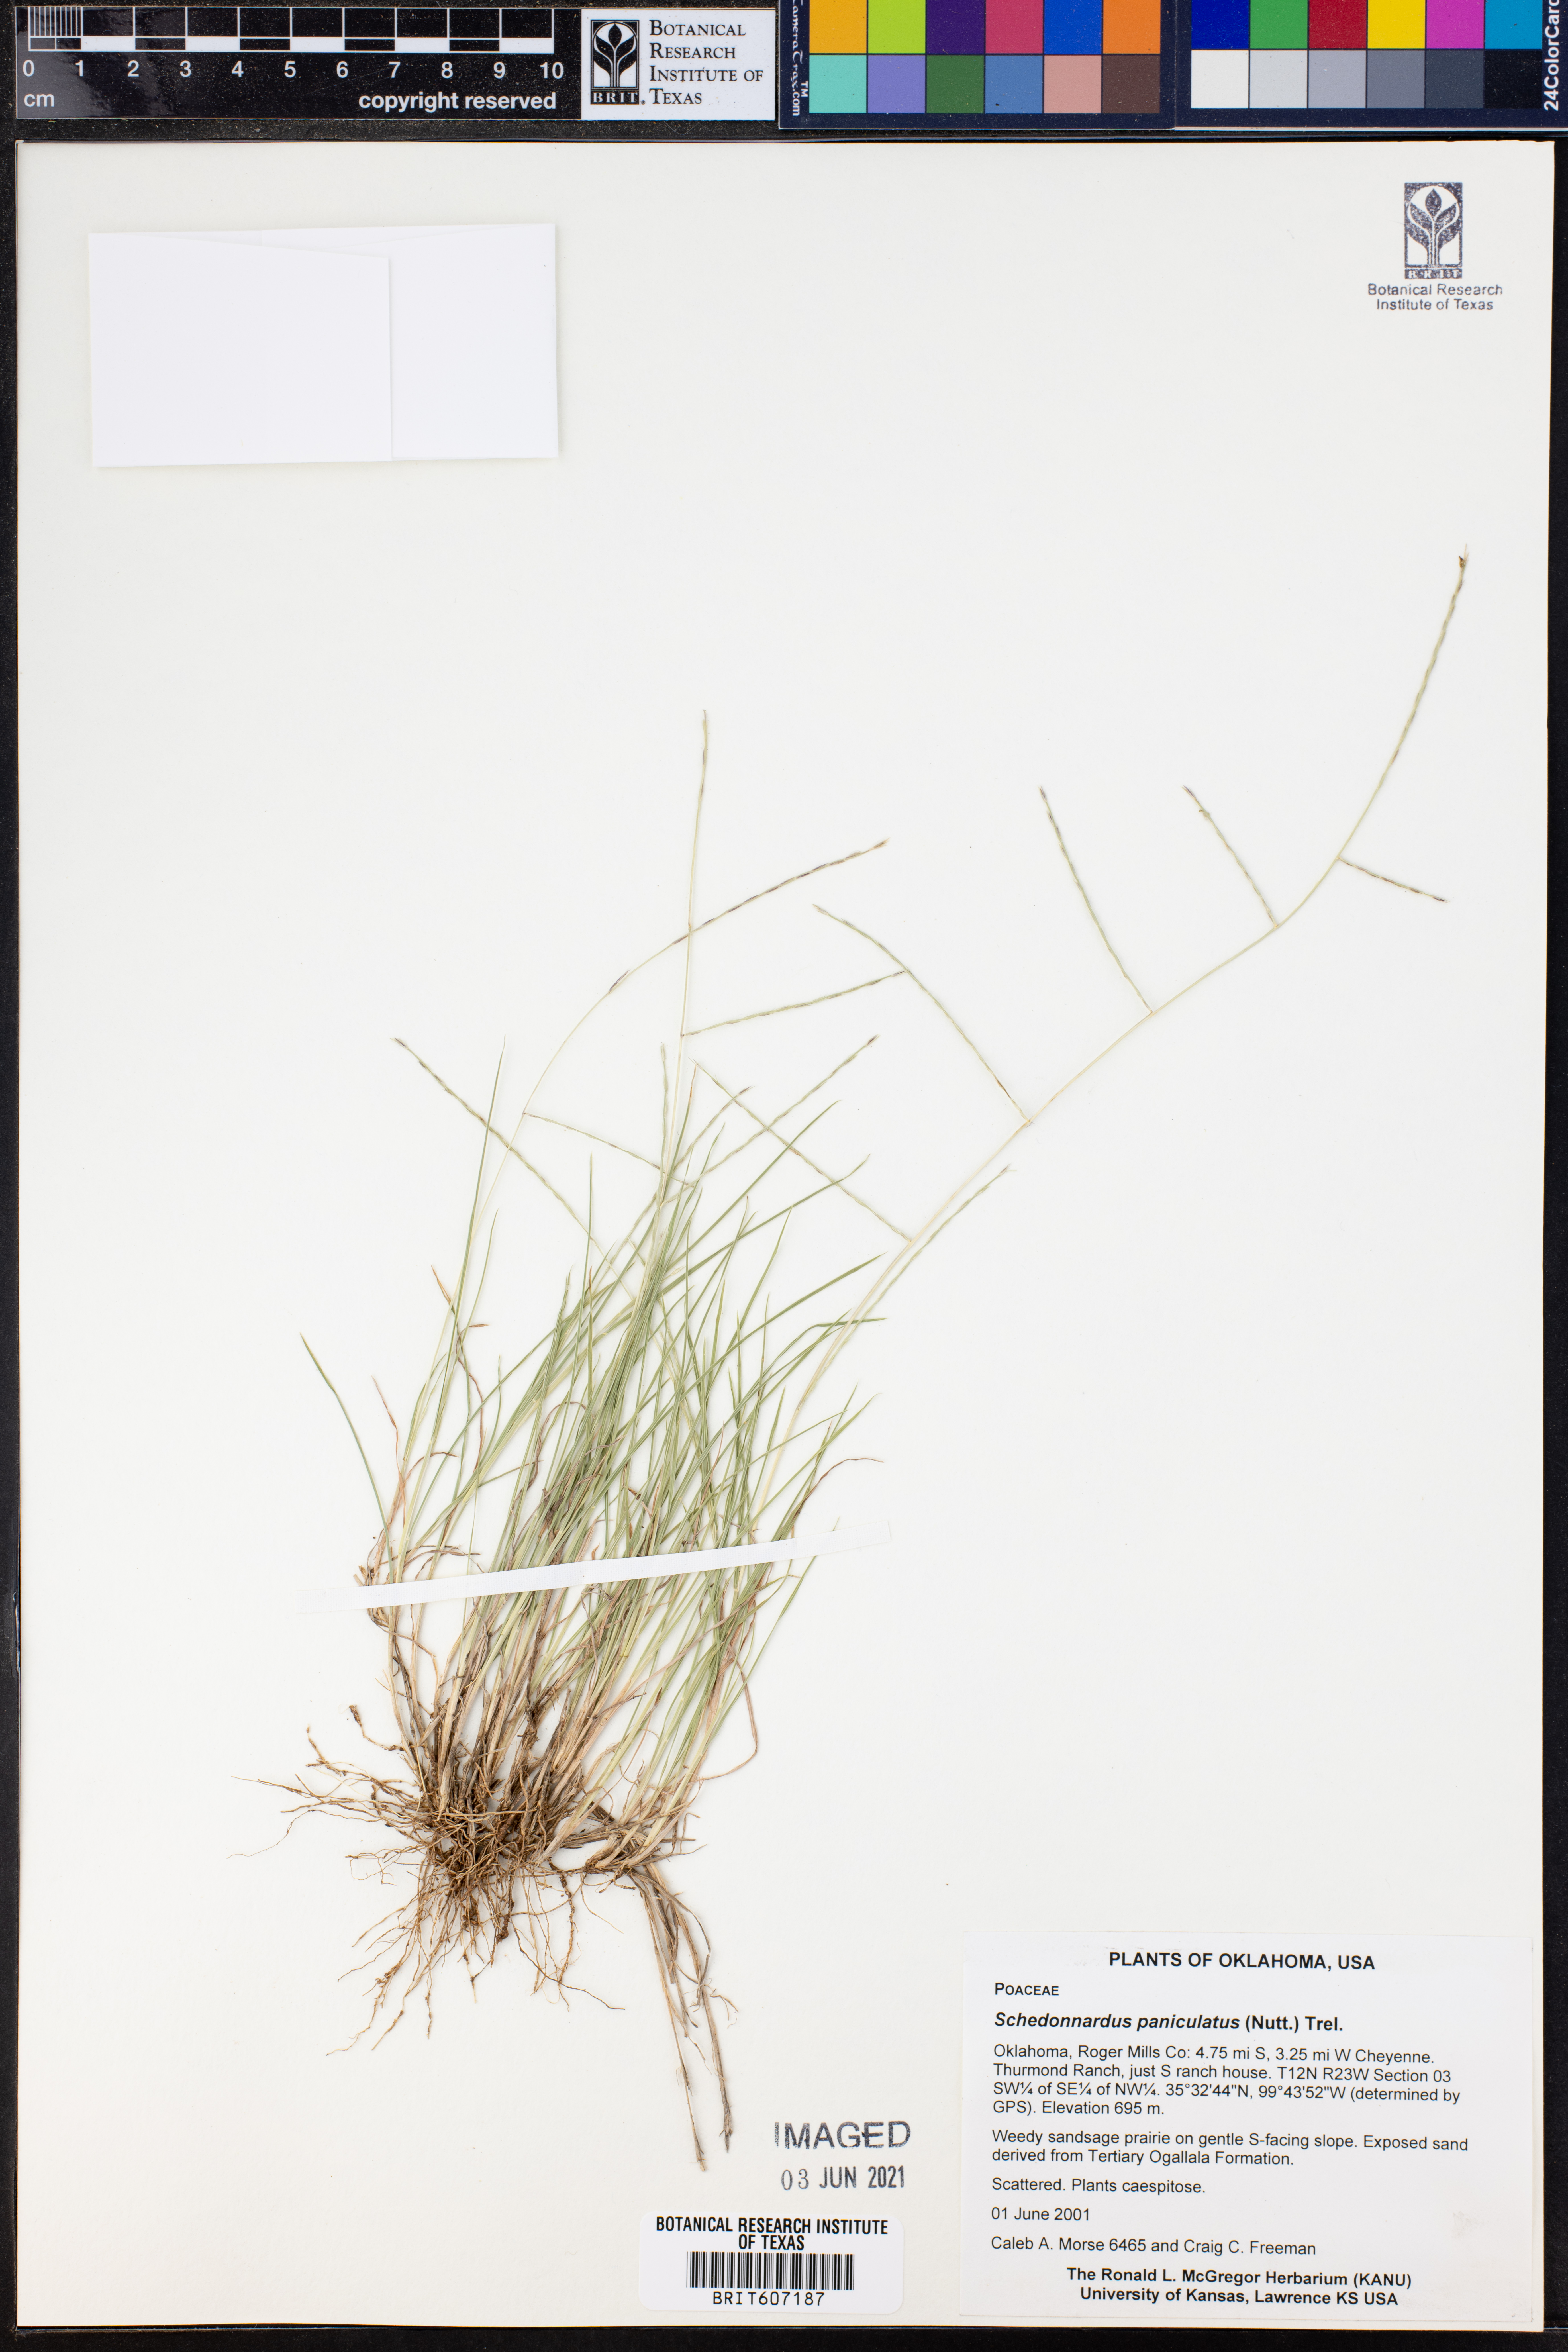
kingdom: Plantae
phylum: Tracheophyta
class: Liliopsida
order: Poales
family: Poaceae
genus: Muhlenbergia
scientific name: Muhlenbergia paniculata
